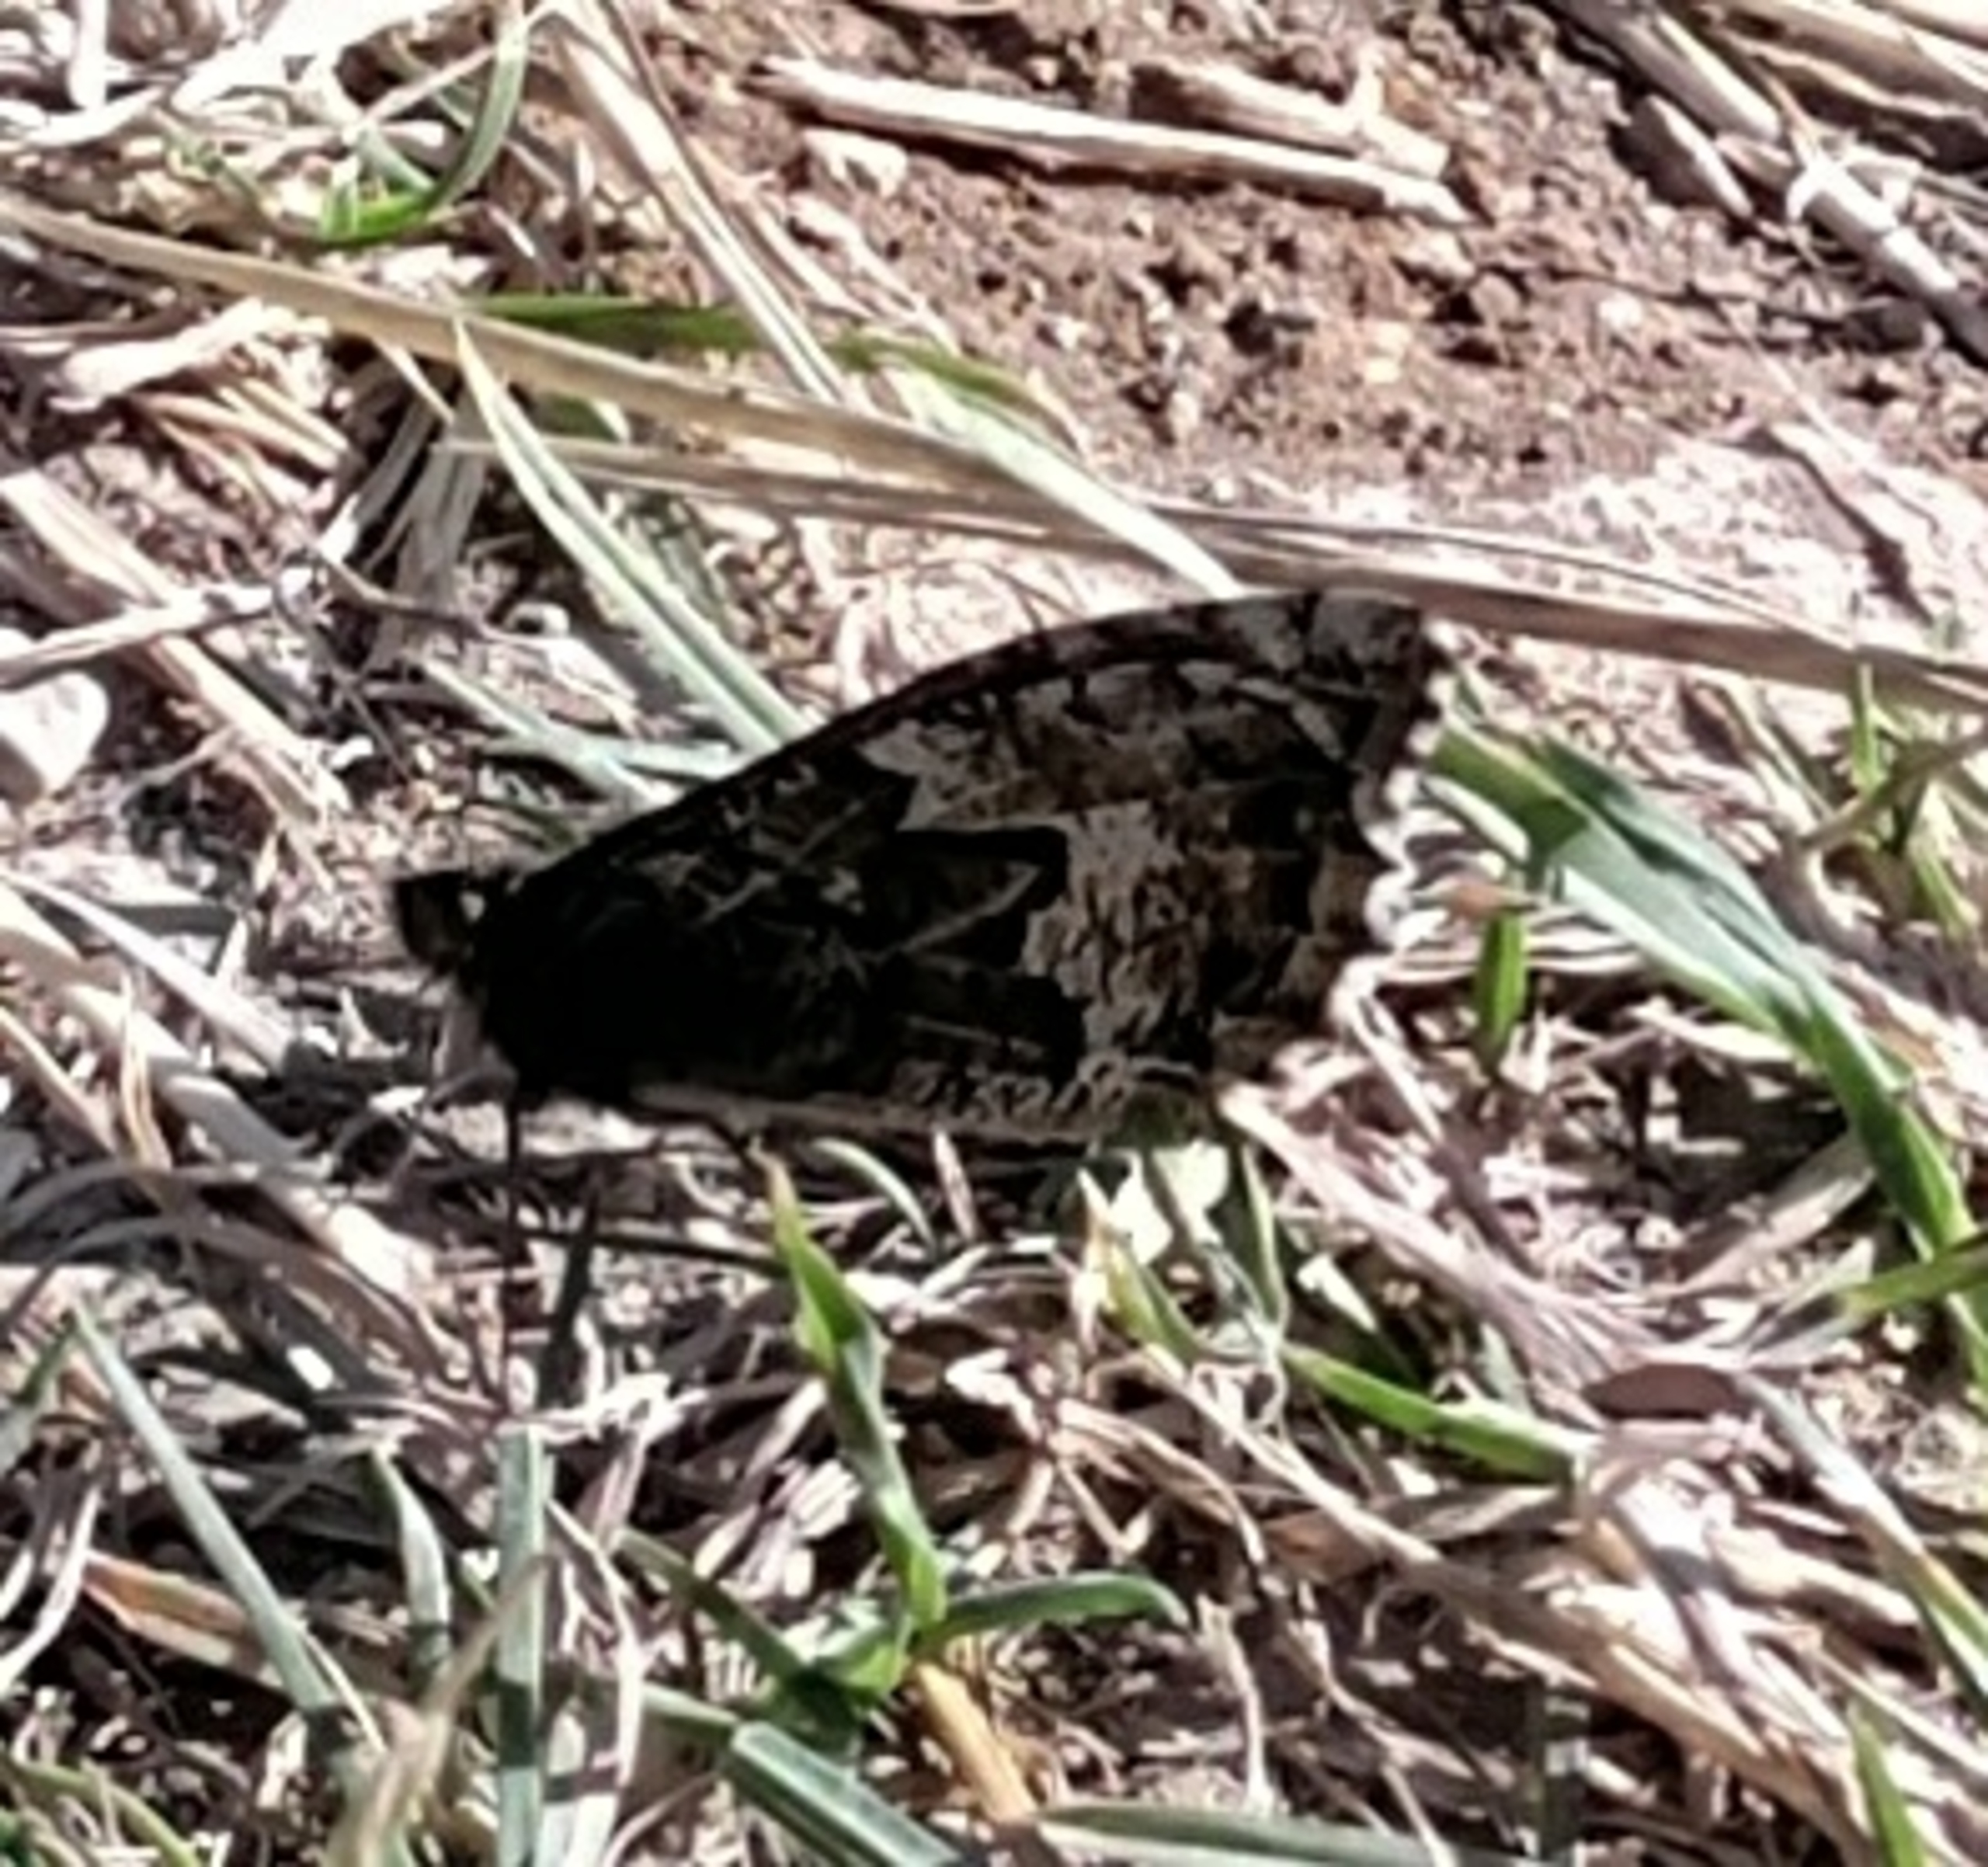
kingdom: Animalia
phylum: Arthropoda
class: Insecta
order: Lepidoptera
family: Nymphalidae
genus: Hipparchia
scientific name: Hipparchia semele
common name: Sandrandøje
